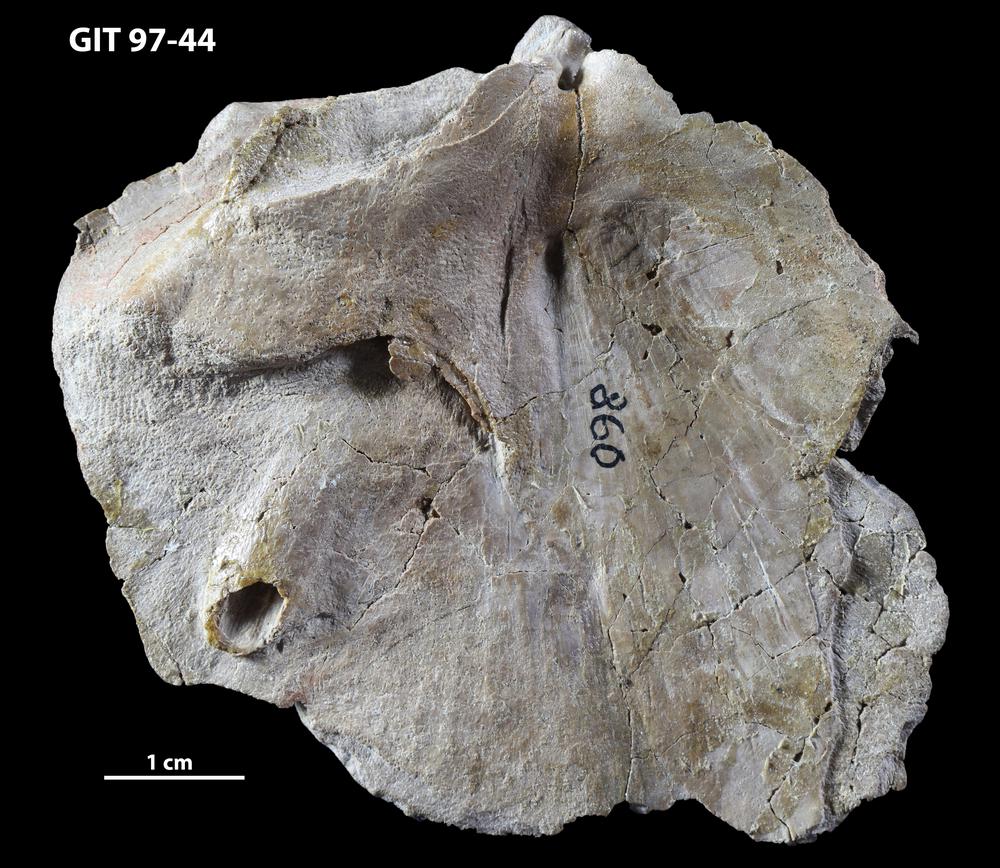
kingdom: Animalia
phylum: Chordata
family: Holonematidae
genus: Holonema
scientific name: Holonema
